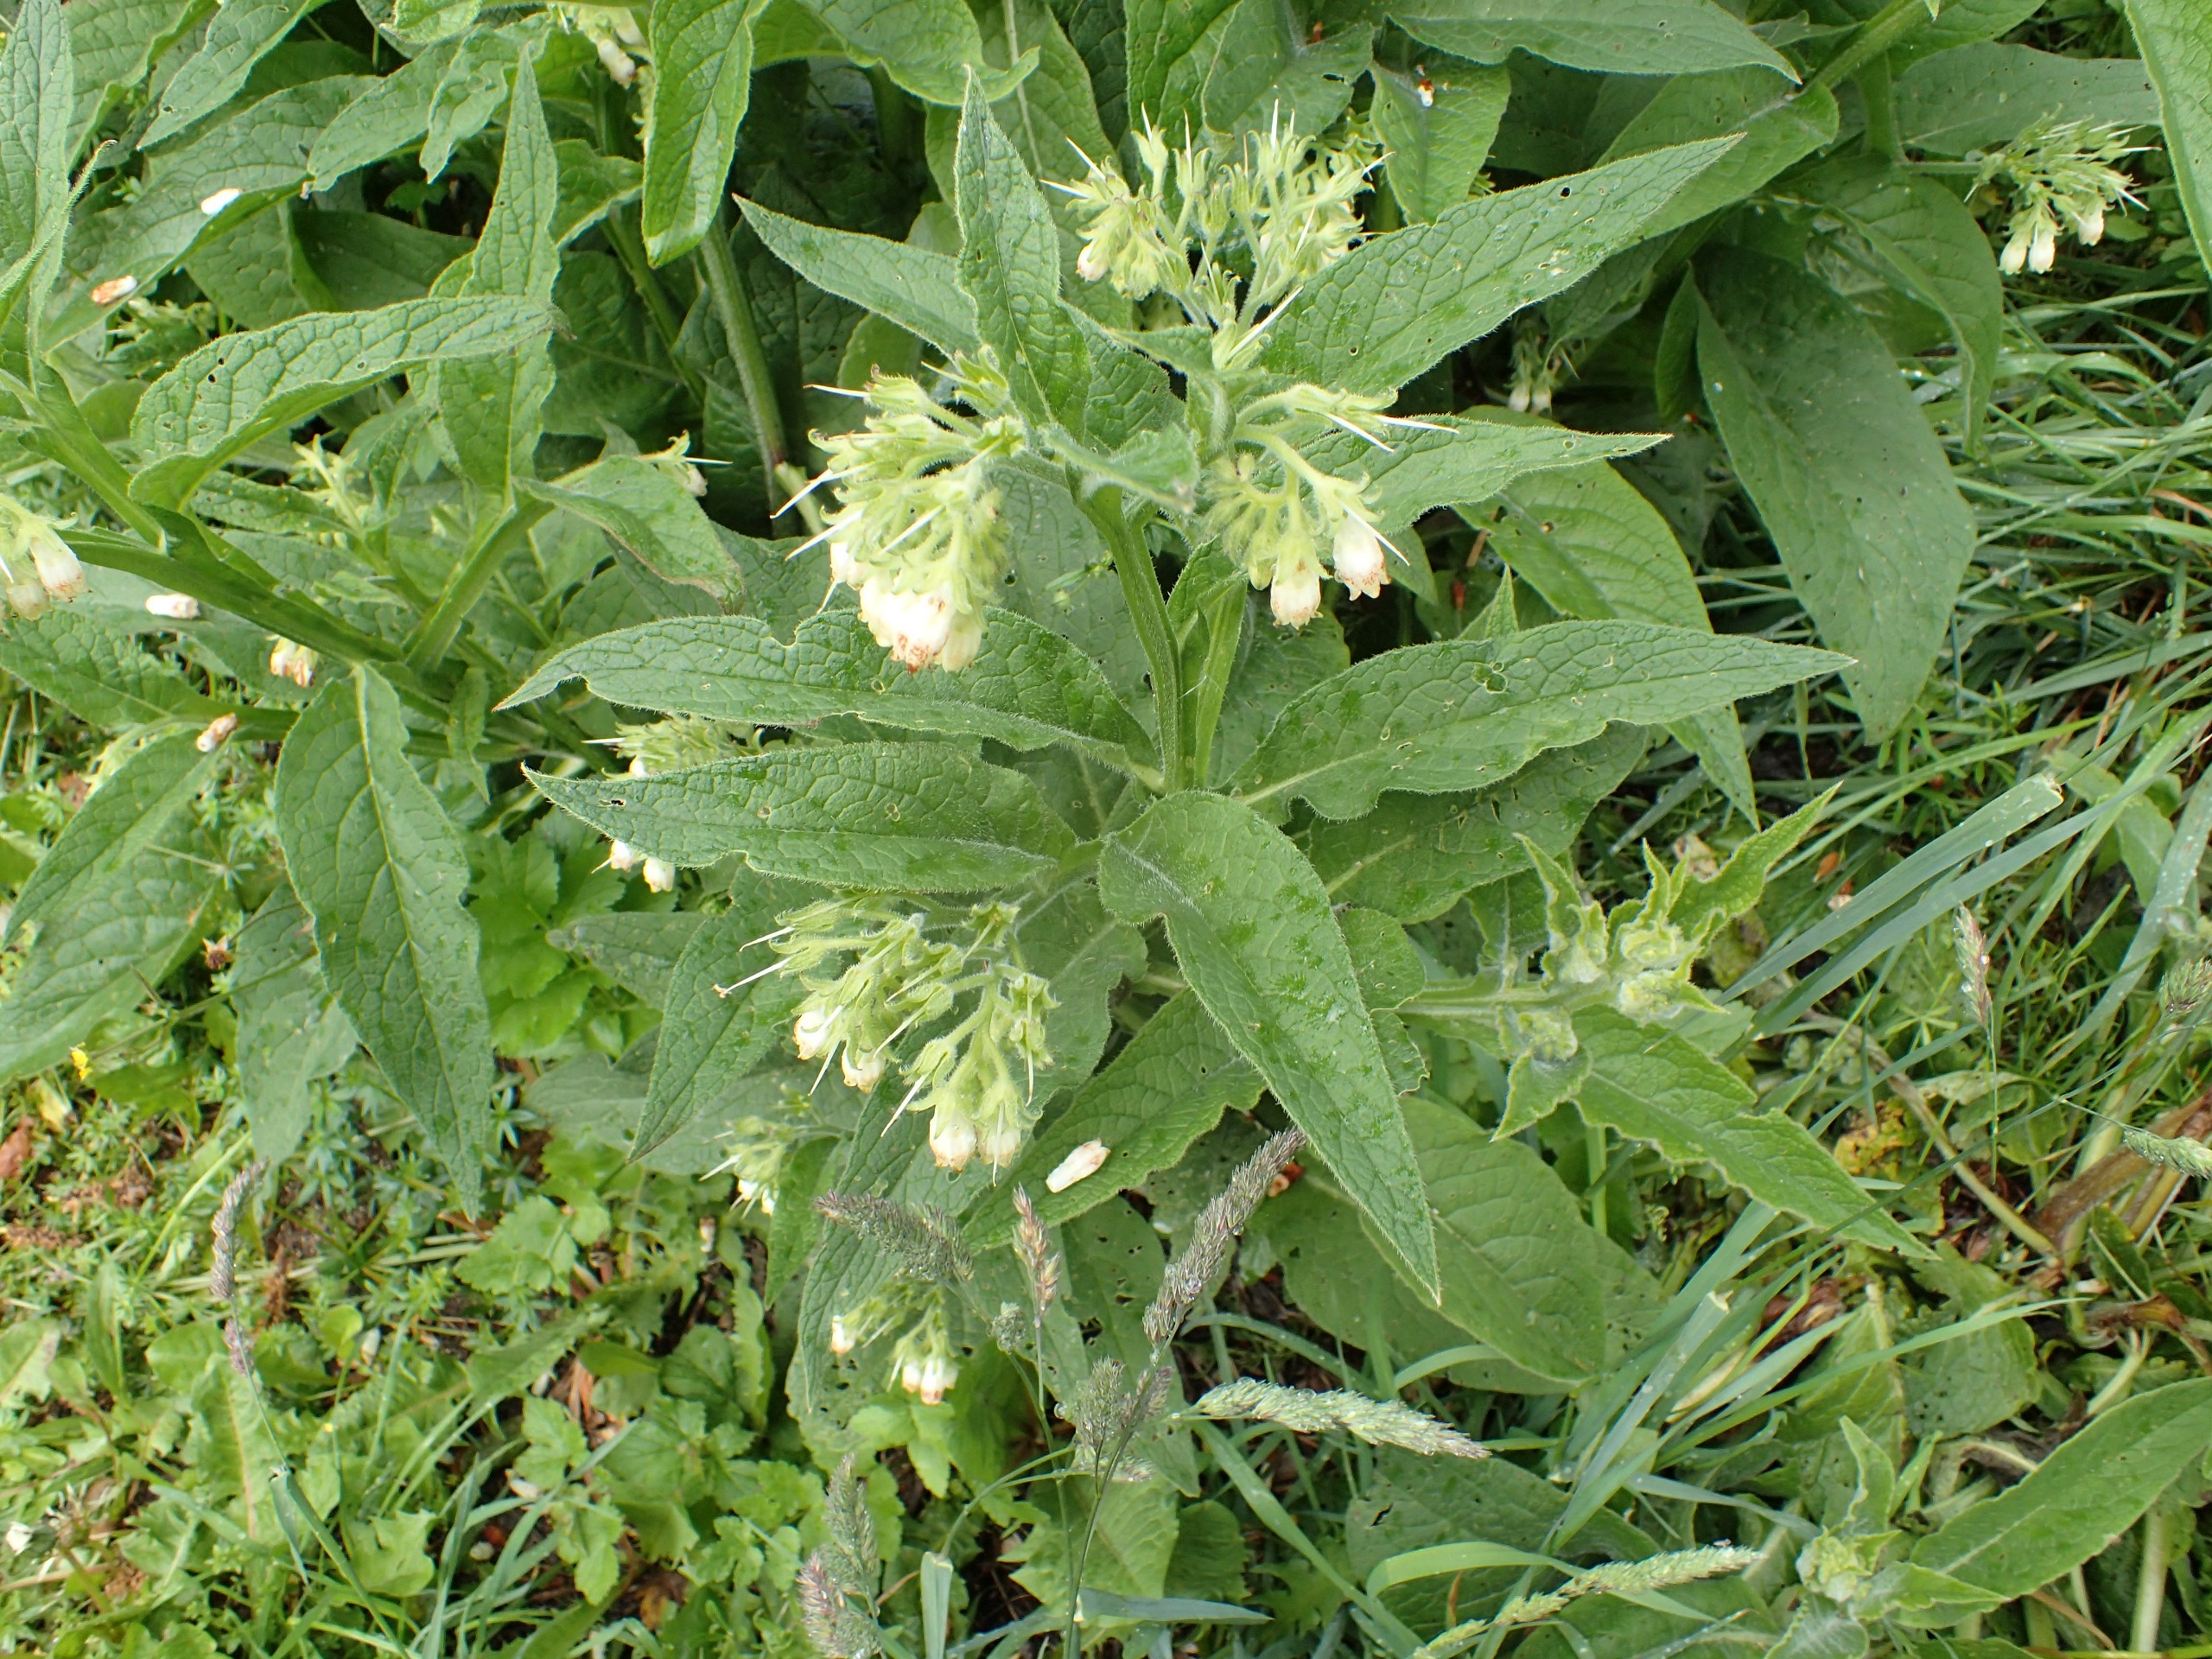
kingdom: Plantae
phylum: Tracheophyta
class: Magnoliopsida
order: Boraginales
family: Boraginaceae
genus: Symphytum
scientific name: Symphytum officinale
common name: Læge-kulsukker
